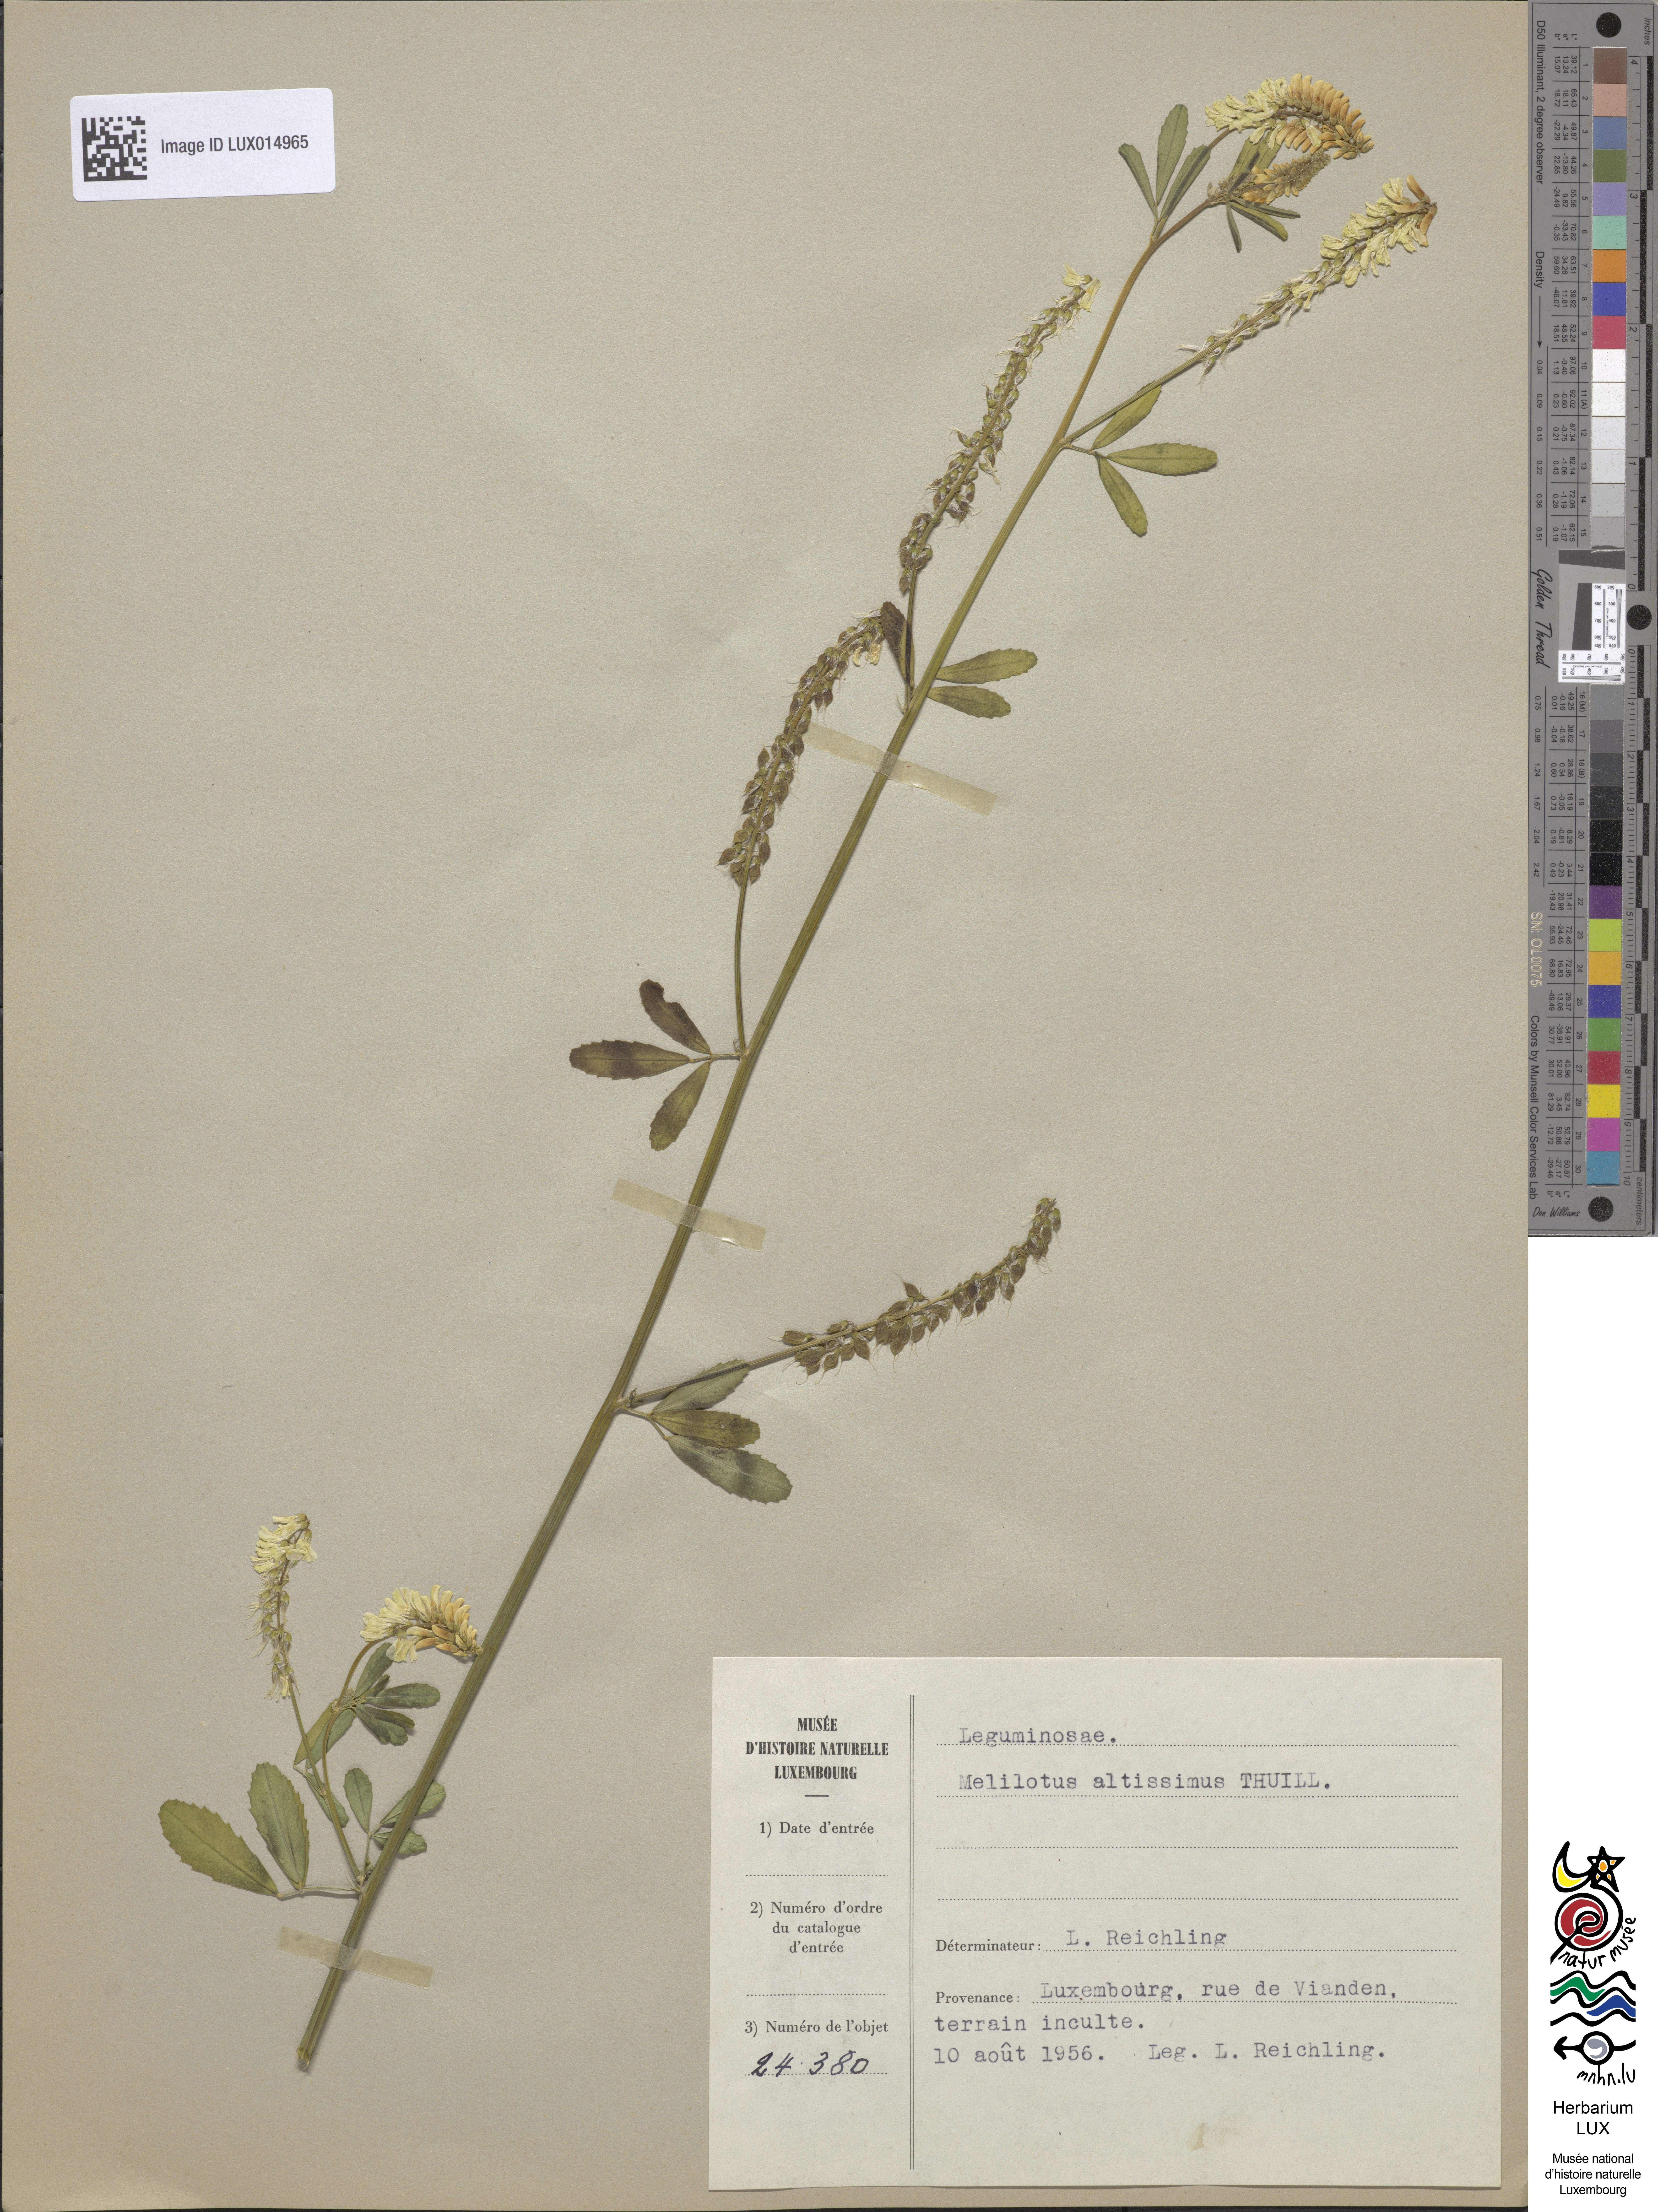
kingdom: Plantae
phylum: Tracheophyta
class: Magnoliopsida
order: Fabales
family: Fabaceae
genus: Melilotus
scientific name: Melilotus altissimus
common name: Tall melilot
